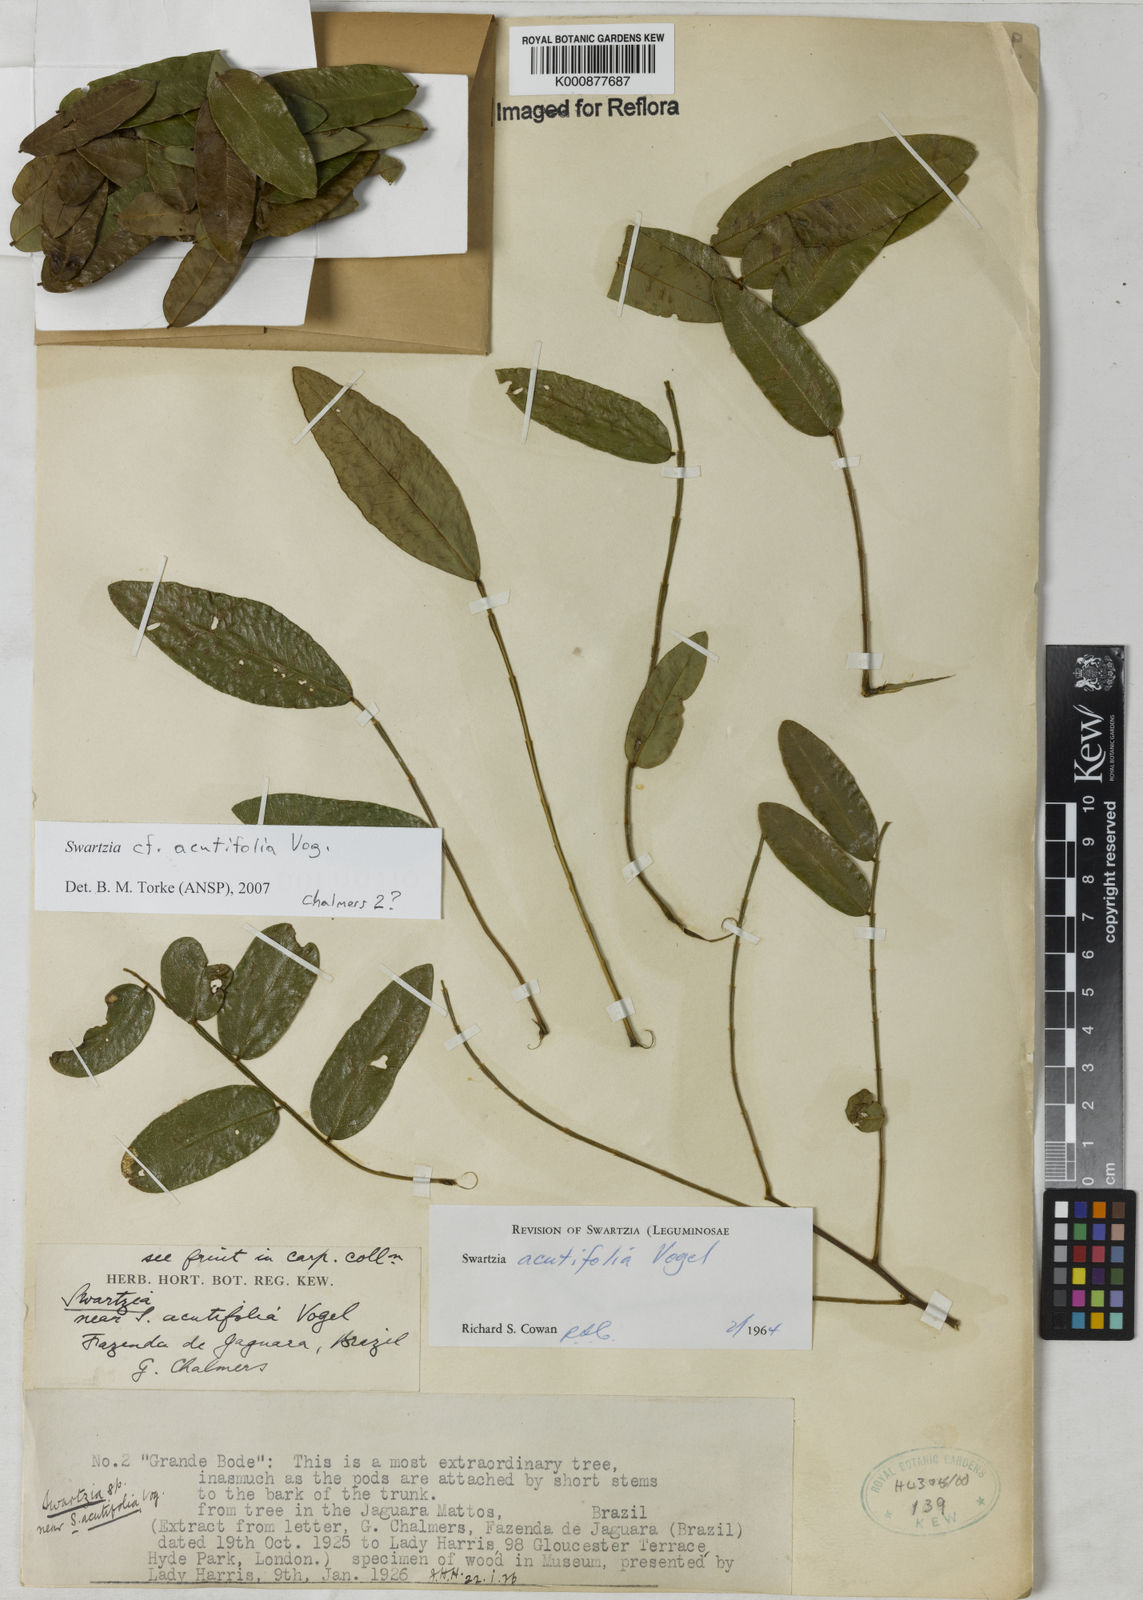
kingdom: Plantae
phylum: Tracheophyta
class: Magnoliopsida
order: Fabales
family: Fabaceae
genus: Swartzia
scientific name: Swartzia acutifolia
